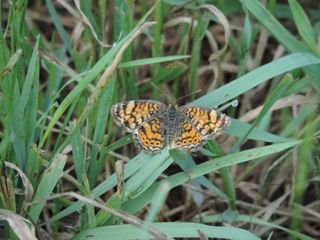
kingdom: Animalia
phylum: Arthropoda
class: Insecta
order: Lepidoptera
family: Nymphalidae
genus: Phyciodes
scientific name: Phyciodes tharos
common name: Pearl Crescent
